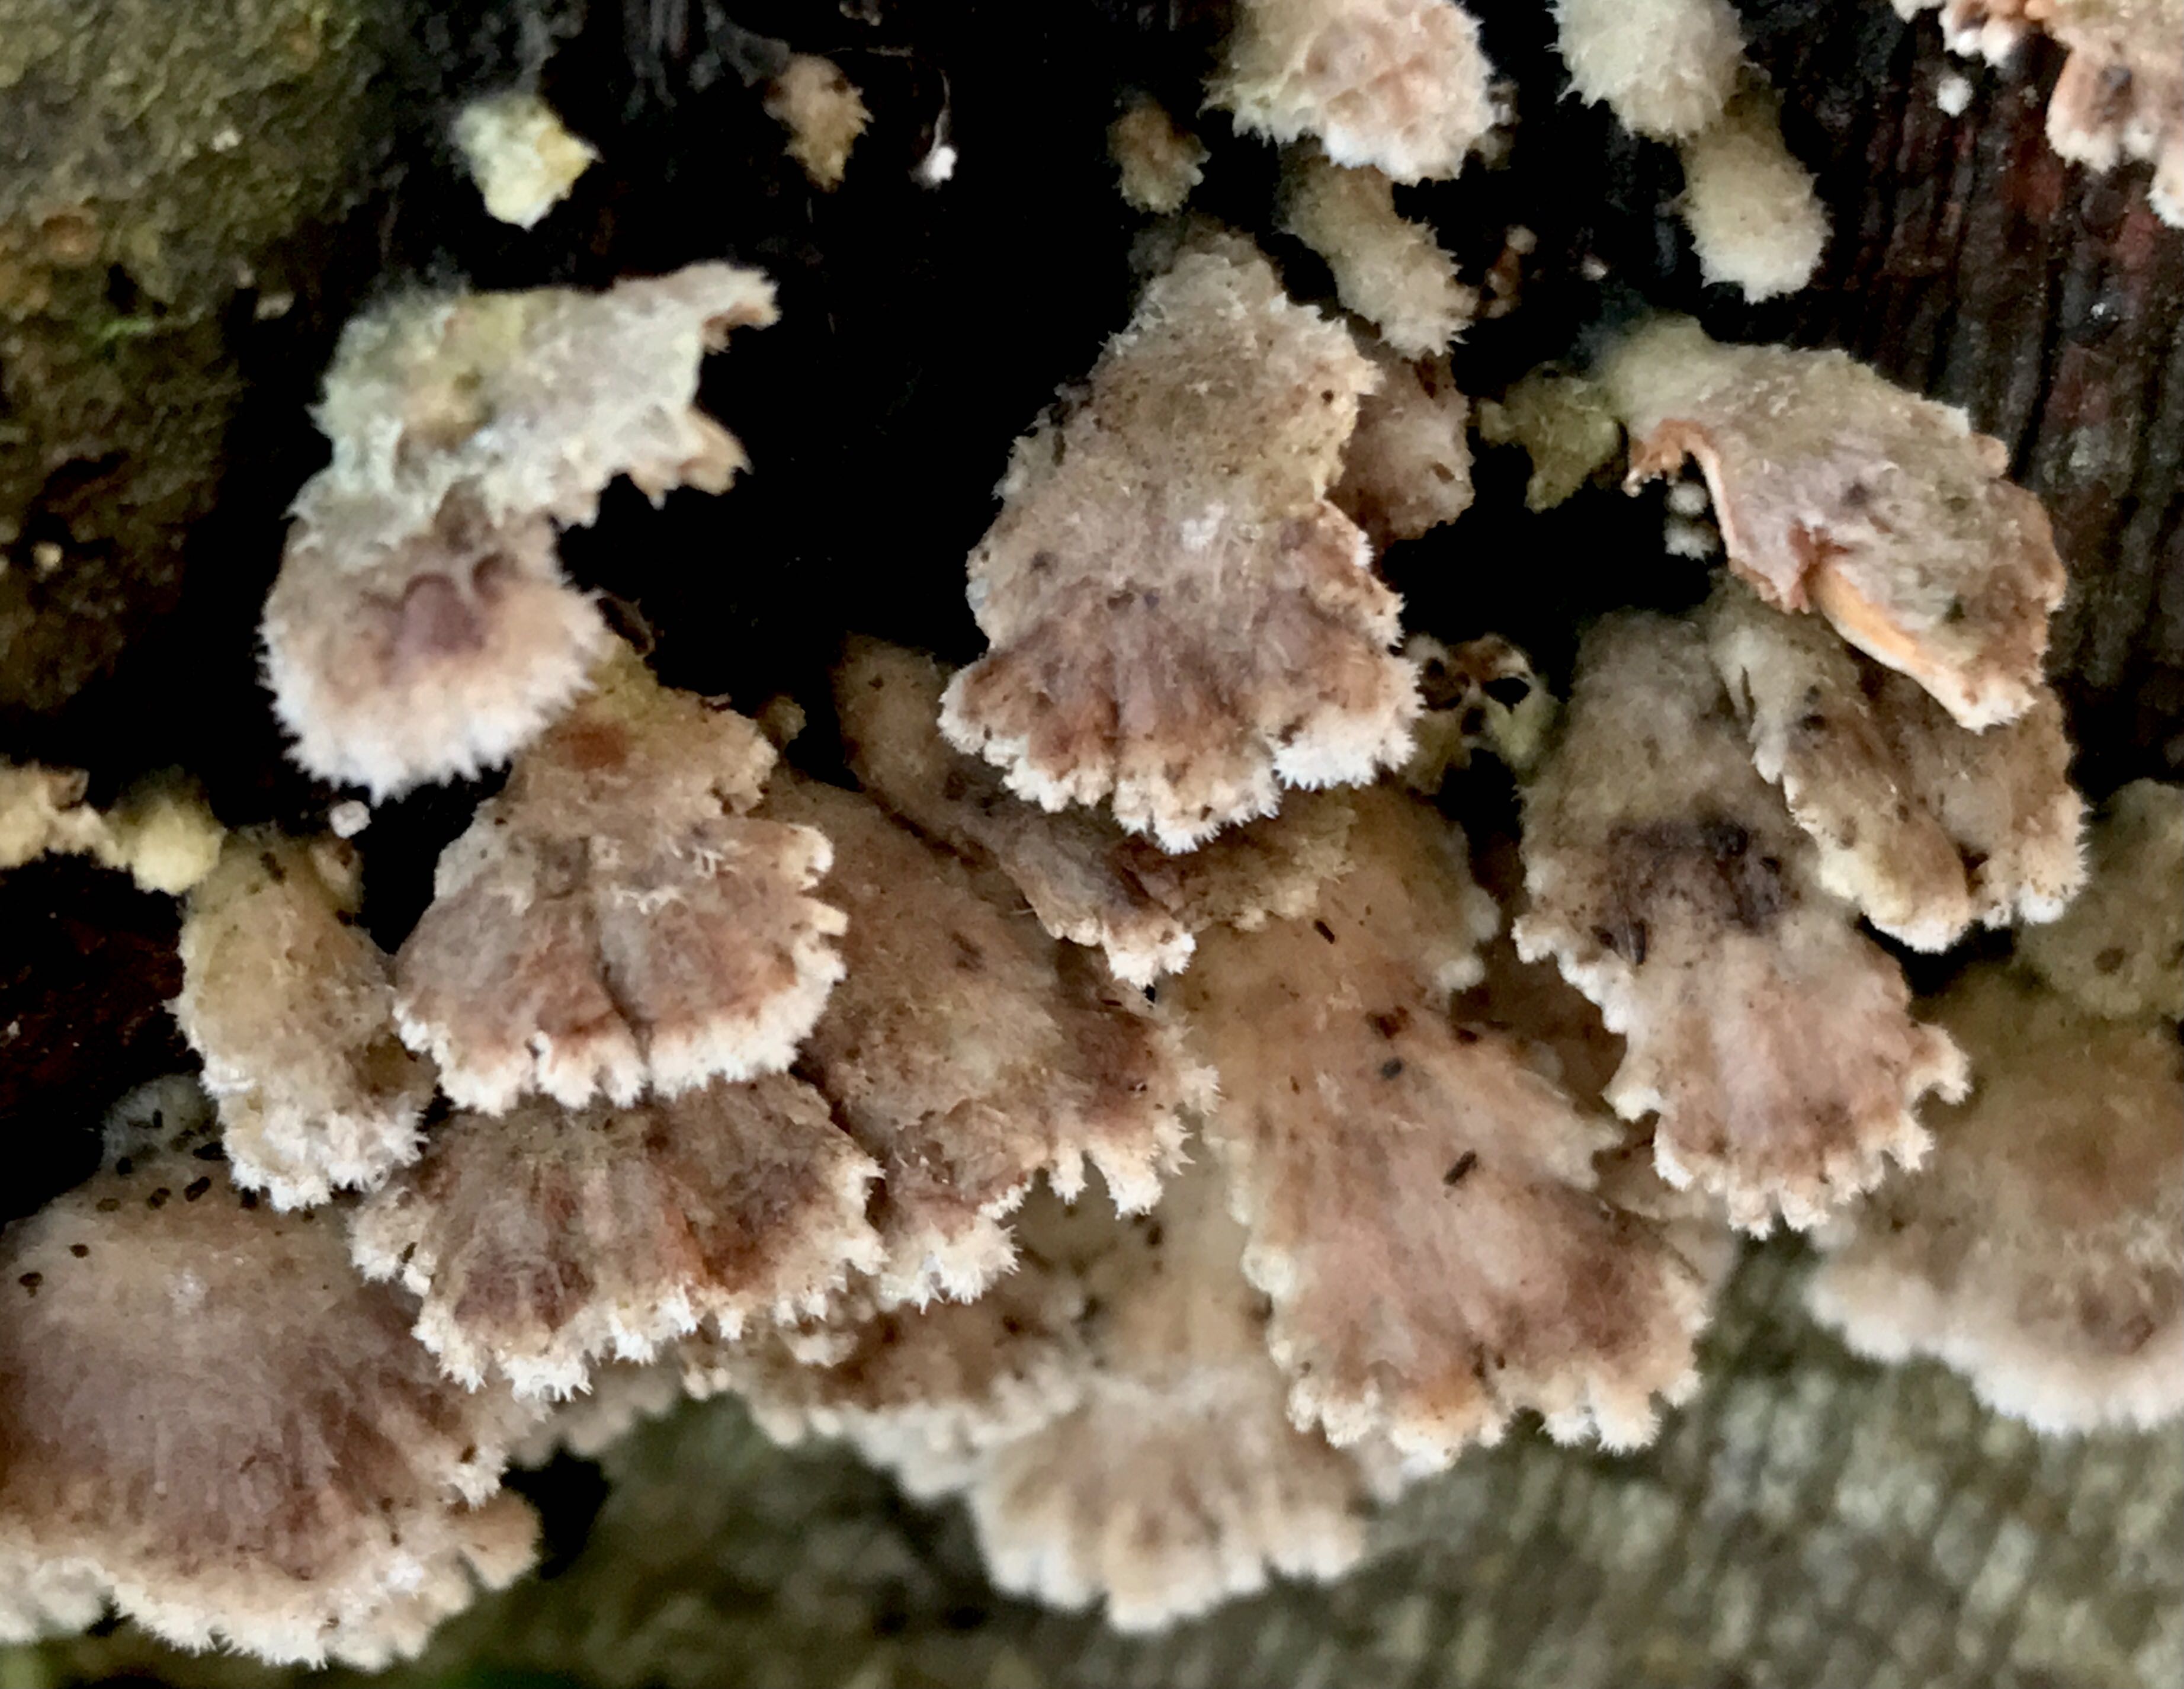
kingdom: Fungi
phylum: Basidiomycota
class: Agaricomycetes
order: Agaricales
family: Schizophyllaceae
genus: Schizophyllum
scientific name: Schizophyllum commune
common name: kløvblad
